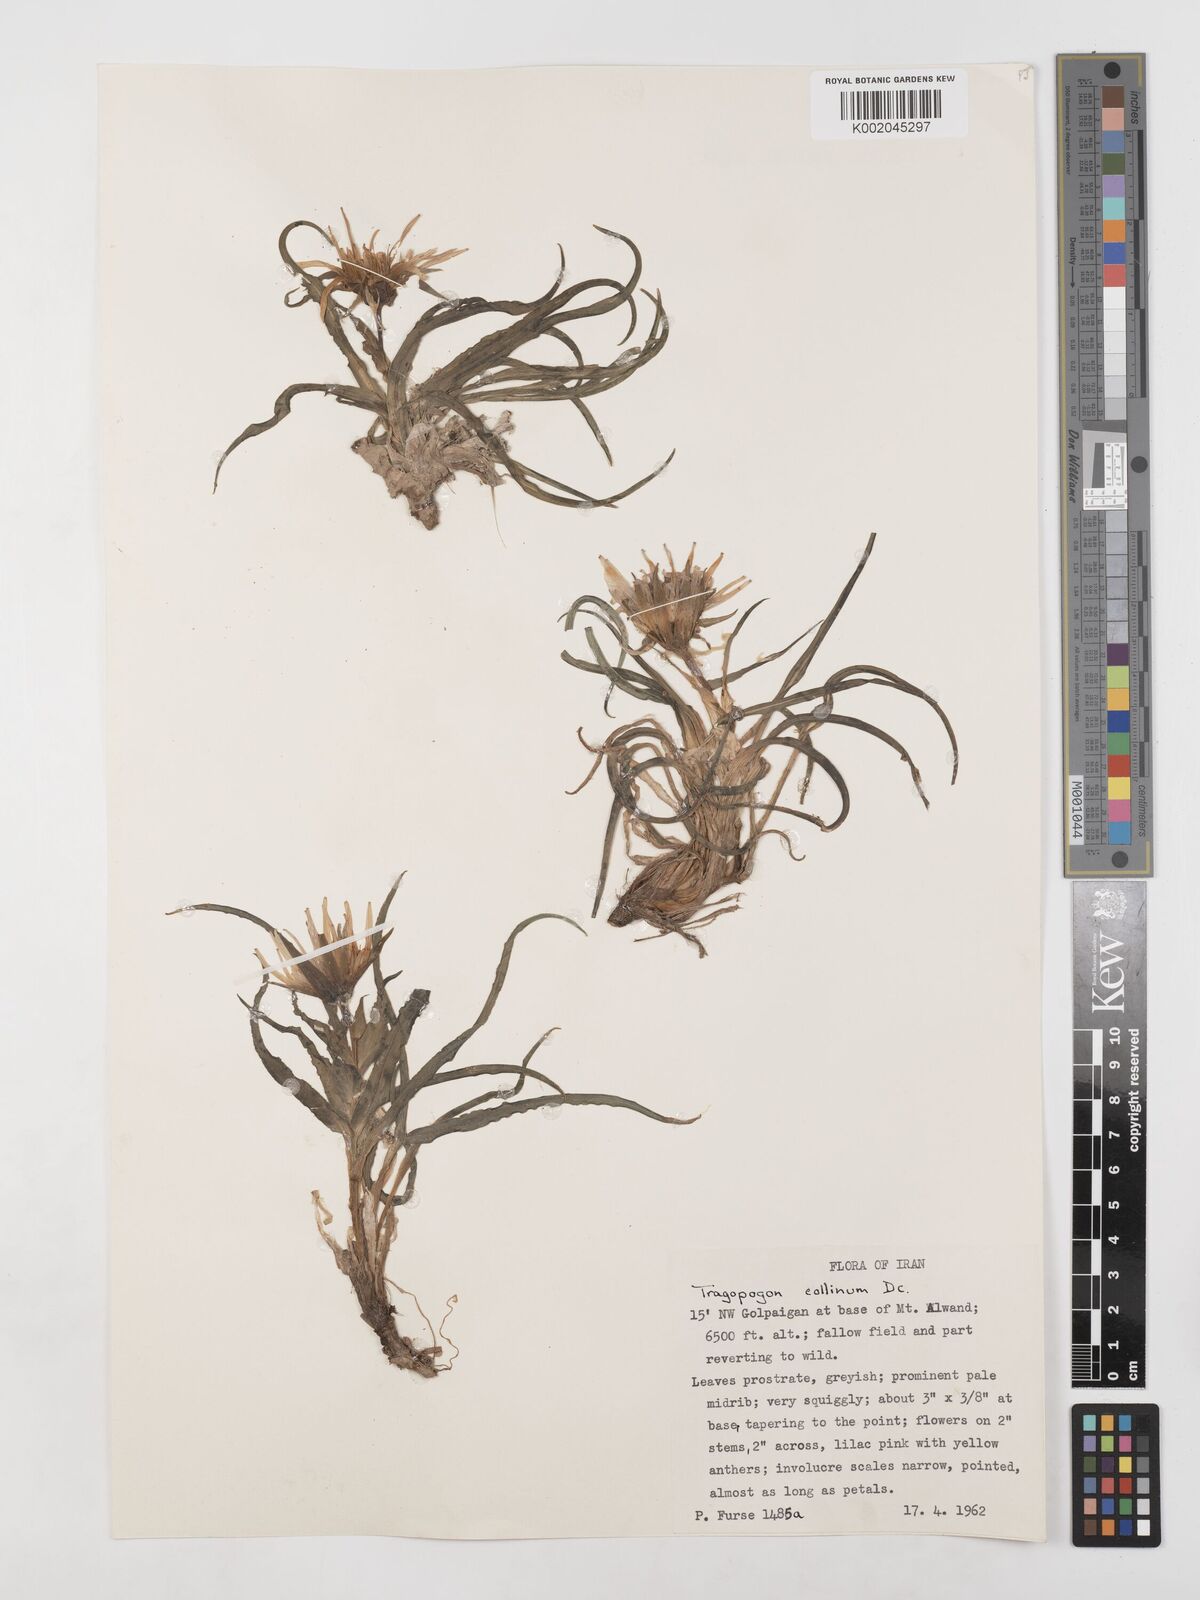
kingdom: Plantae
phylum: Tracheophyta
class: Magnoliopsida
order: Asterales
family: Asteraceae
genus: Tragopogon
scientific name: Tragopogon collinus
